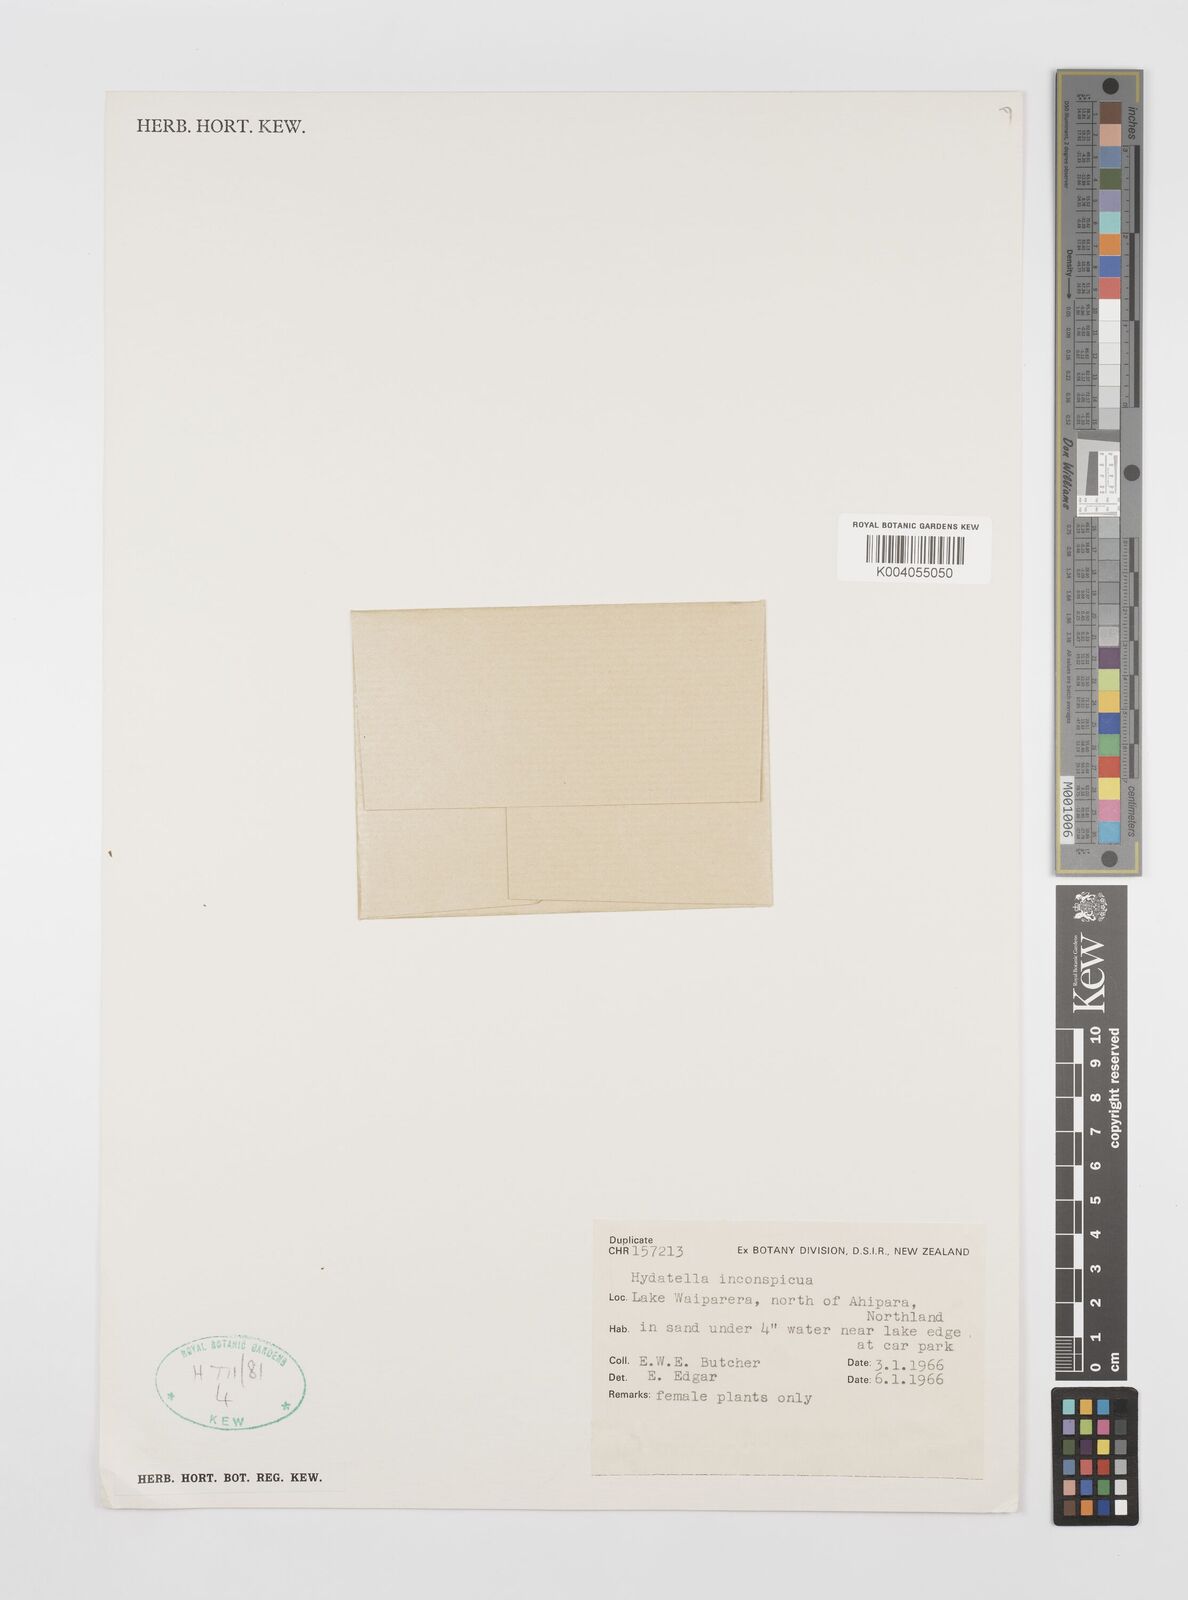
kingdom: Plantae
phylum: Tracheophyta
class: Magnoliopsida
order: Nymphaeales
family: Hydatellaceae
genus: Trithuria
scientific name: Trithuria inconspicua
